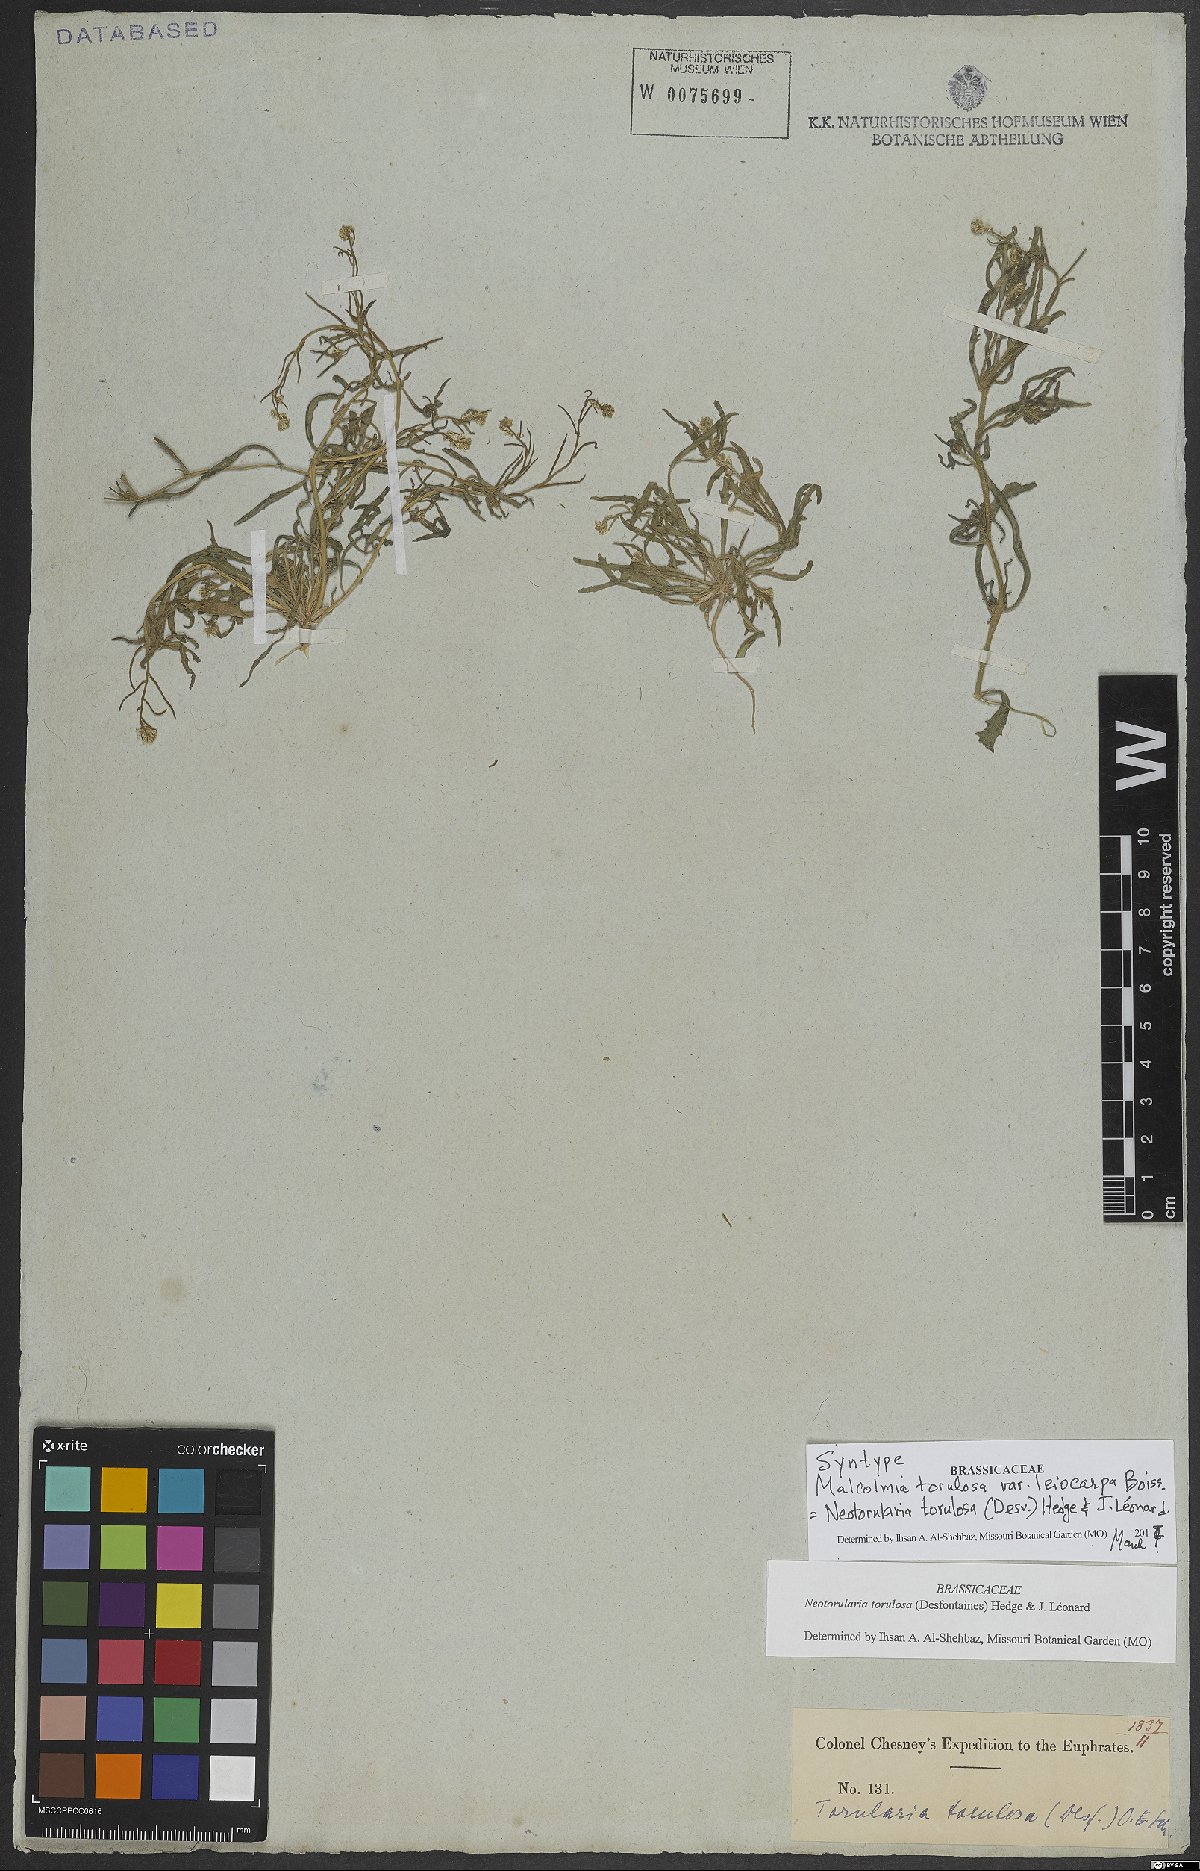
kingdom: Plantae
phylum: Tracheophyta
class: Magnoliopsida
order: Brassicales
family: Brassicaceae
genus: Neotorularia
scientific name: Neotorularia torulosa
